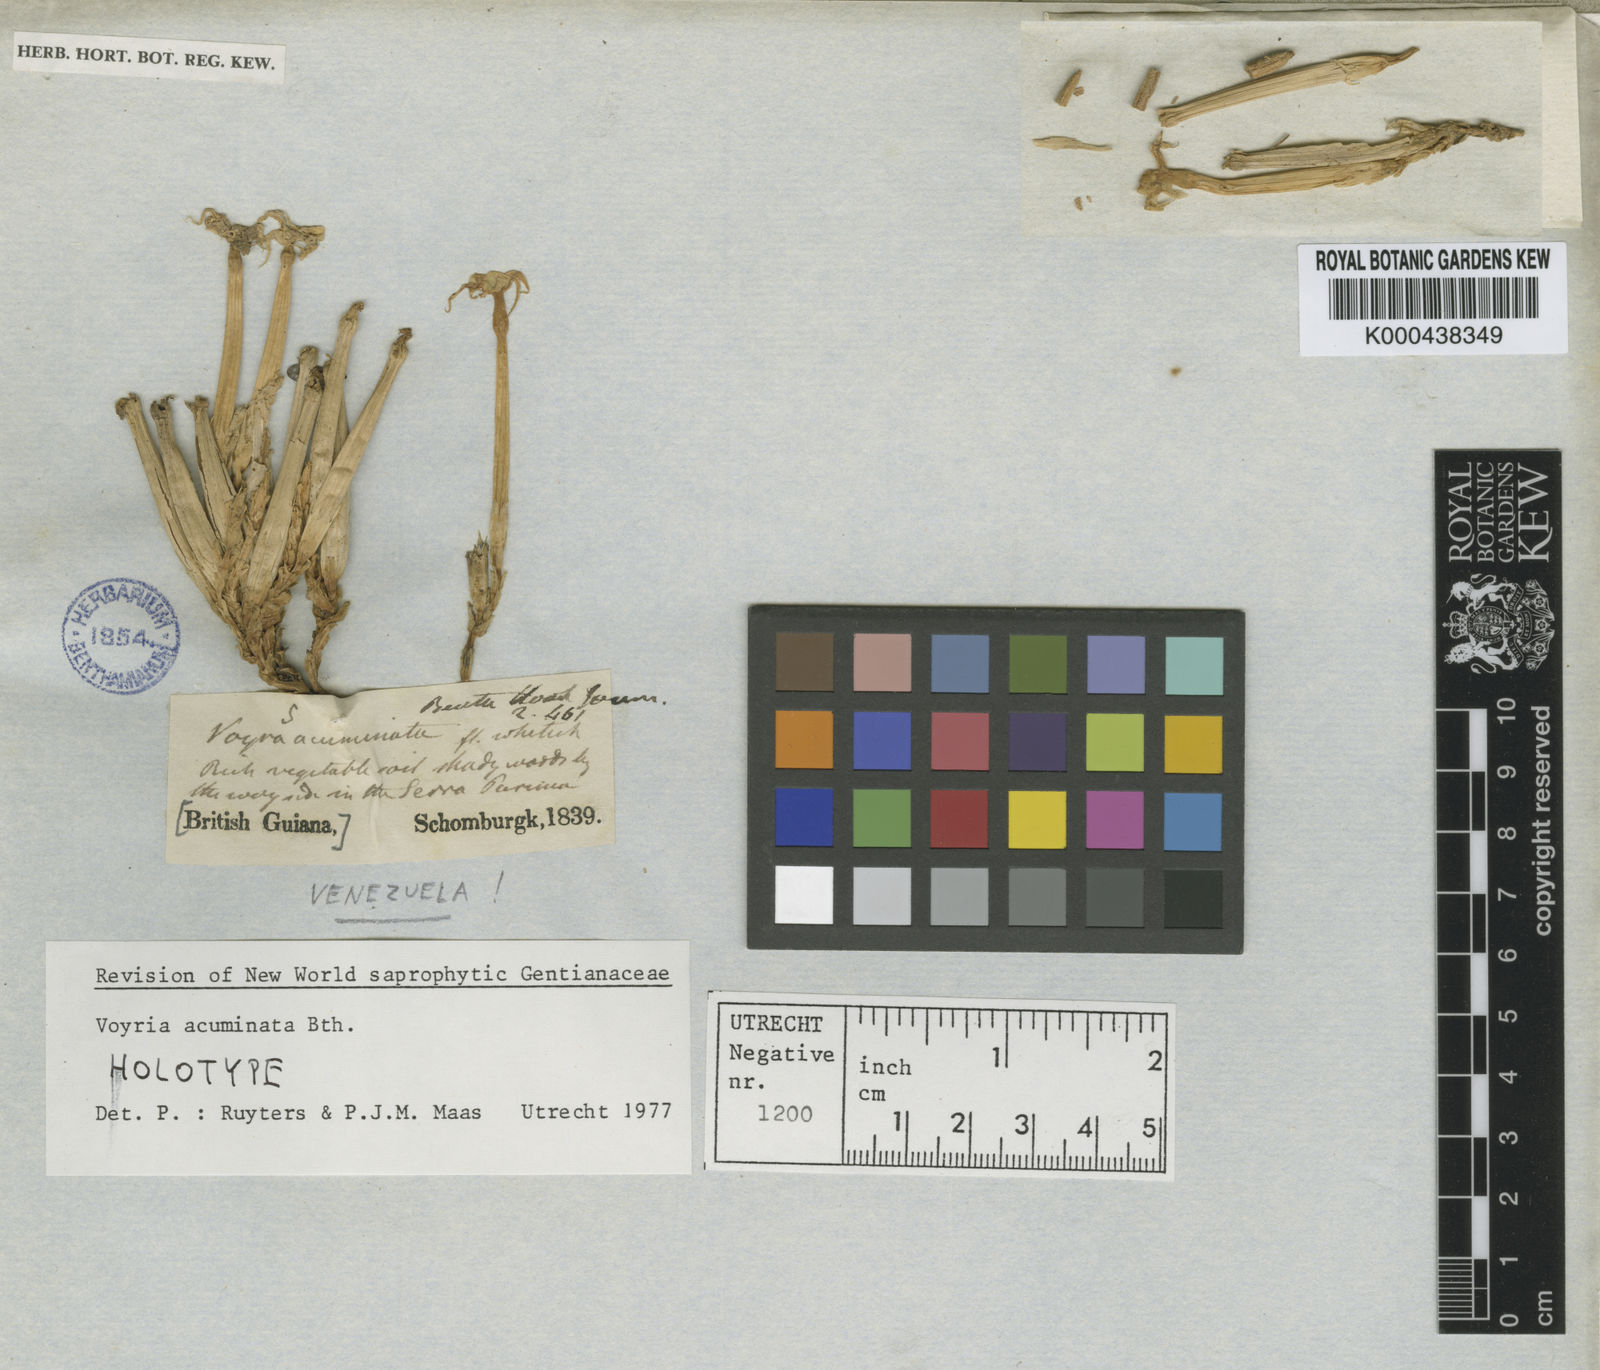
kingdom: Plantae
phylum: Tracheophyta
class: Magnoliopsida
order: Gentianales
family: Gentianaceae
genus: Voyria
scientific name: Voyria acuminata
